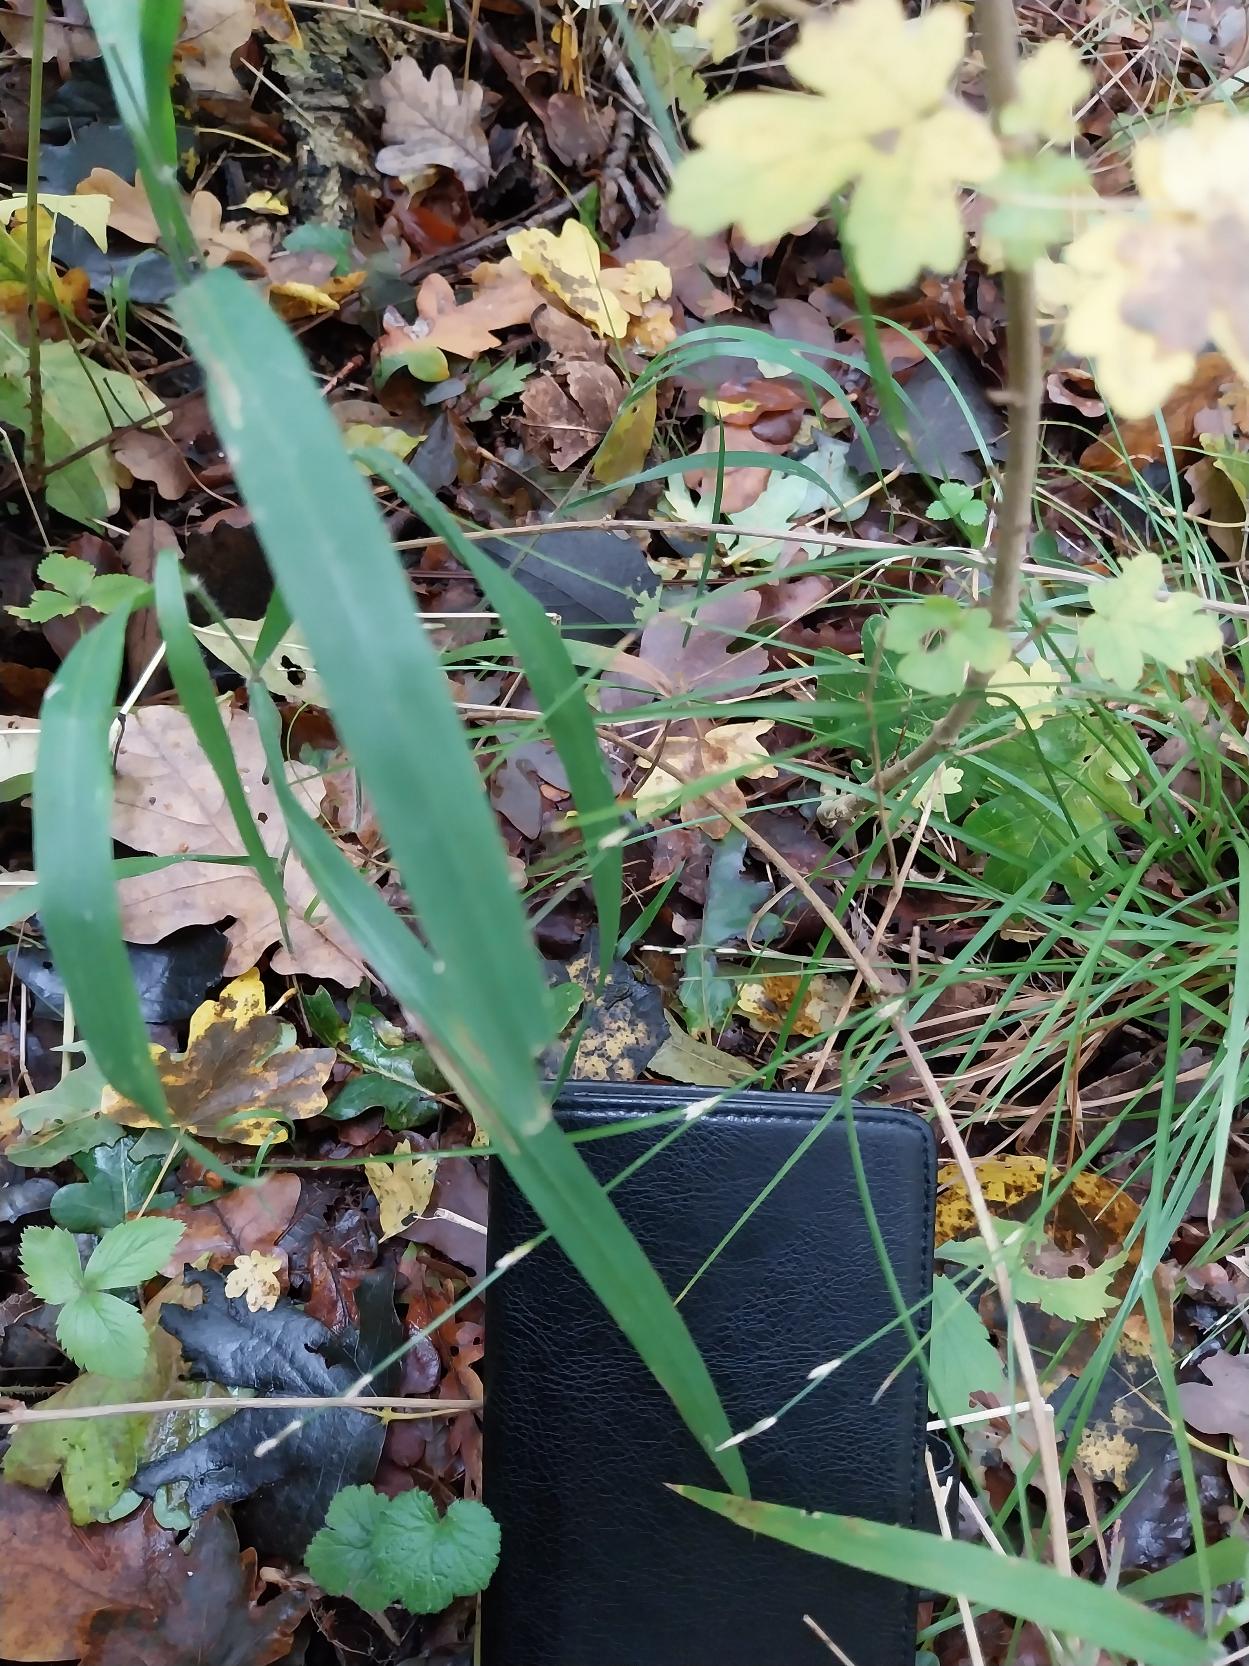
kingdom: Plantae
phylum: Tracheophyta
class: Liliopsida
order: Poales
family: Cyperaceae
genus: Carex
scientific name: Carex remota
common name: Akselblomstret star
